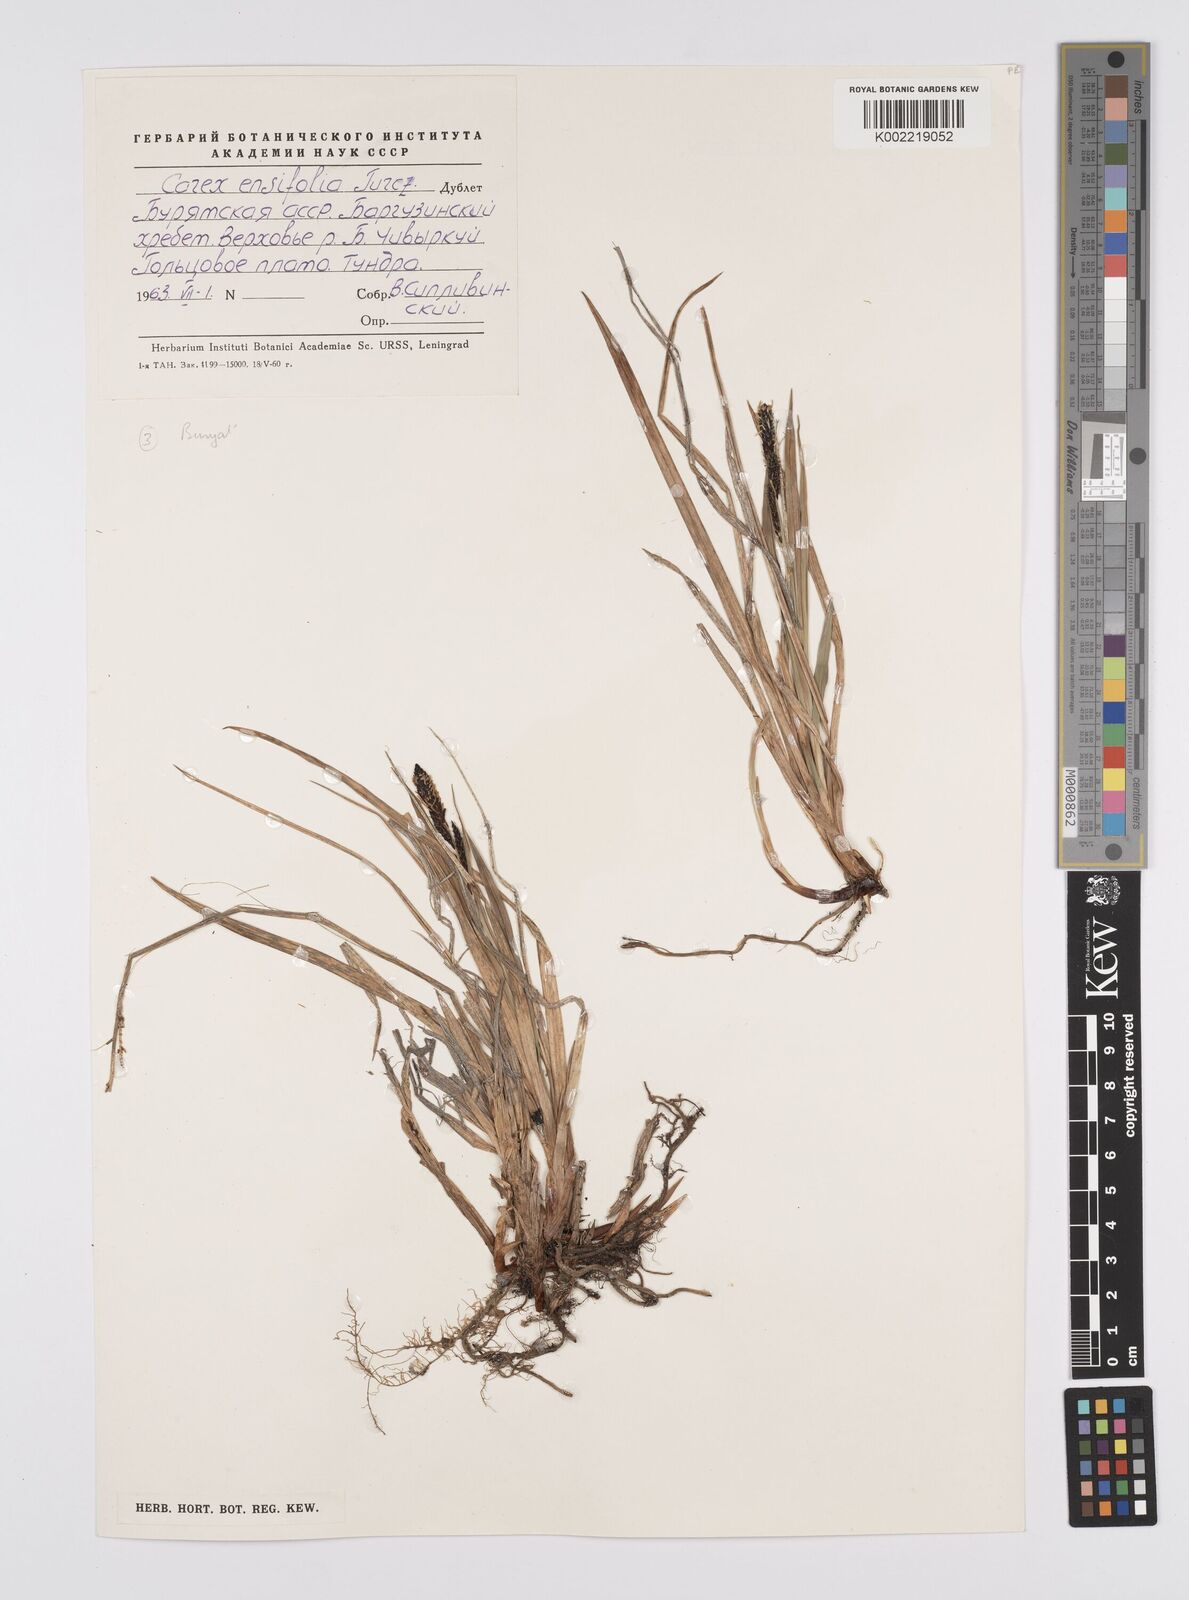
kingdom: Plantae
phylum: Tracheophyta
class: Liliopsida
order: Poales
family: Cyperaceae
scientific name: Cyperaceae
